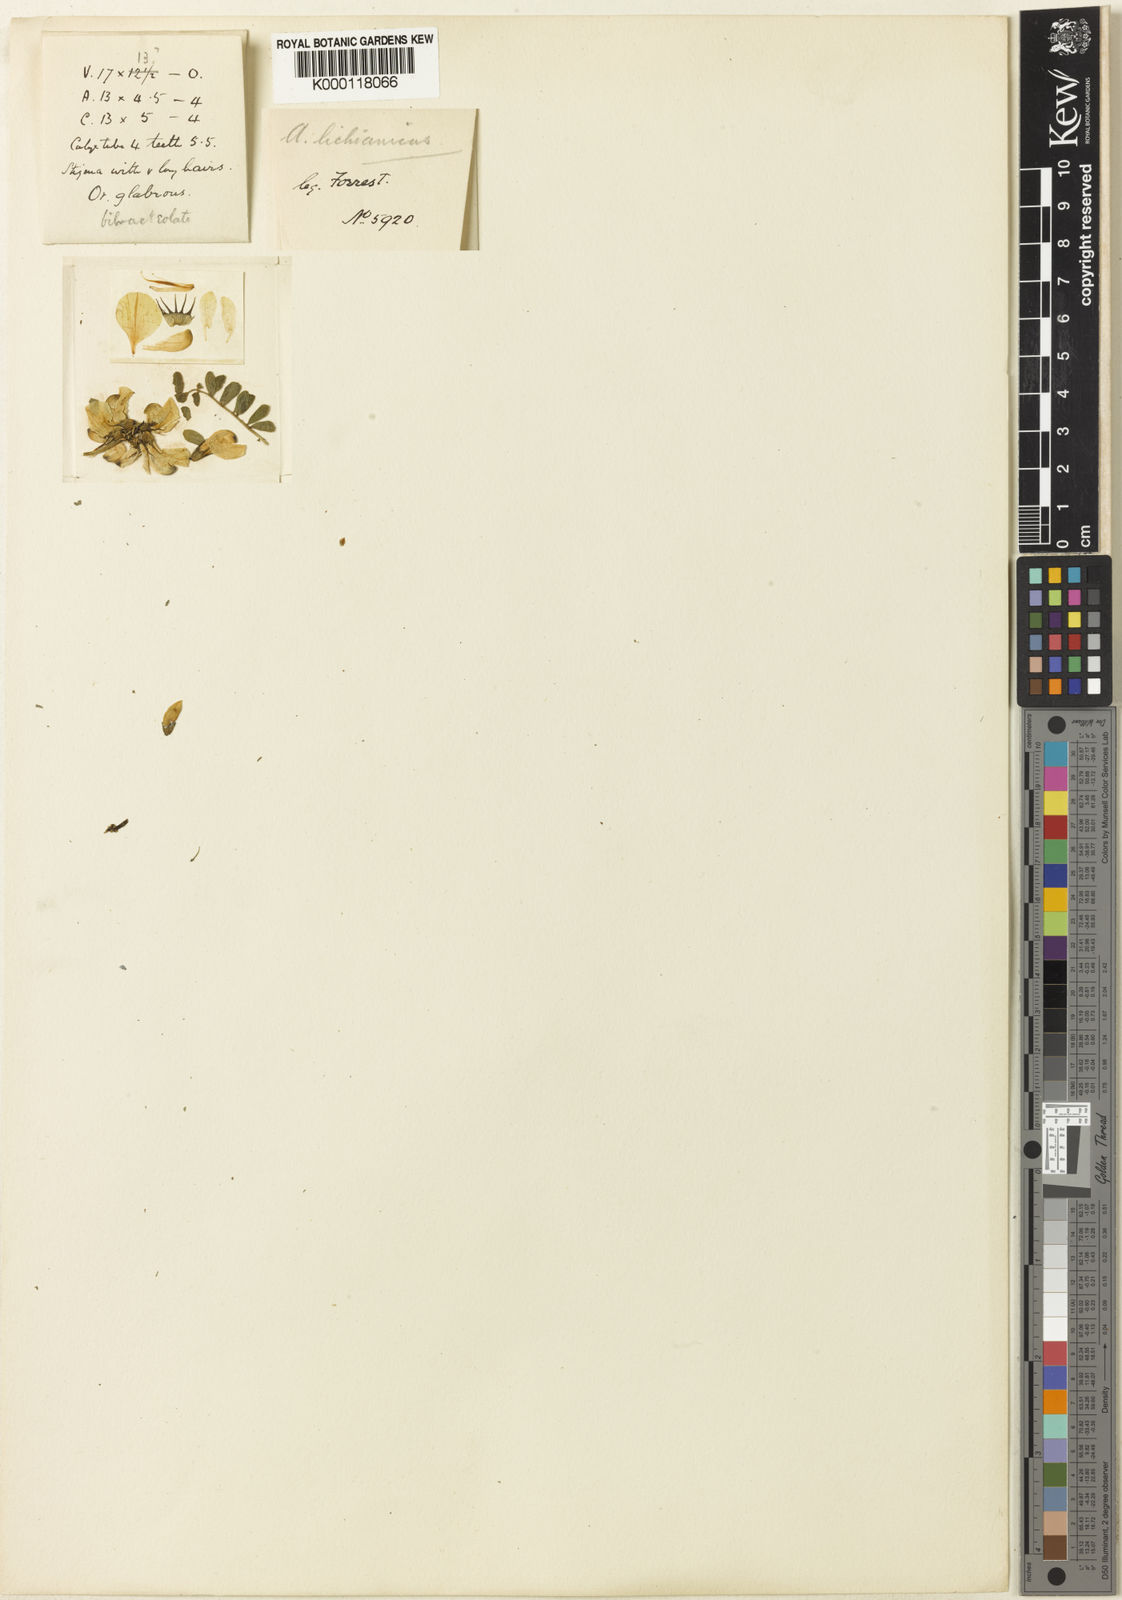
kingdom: Plantae
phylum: Tracheophyta
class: Magnoliopsida
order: Fabales
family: Fabaceae
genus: Astragalus
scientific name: Astragalus
